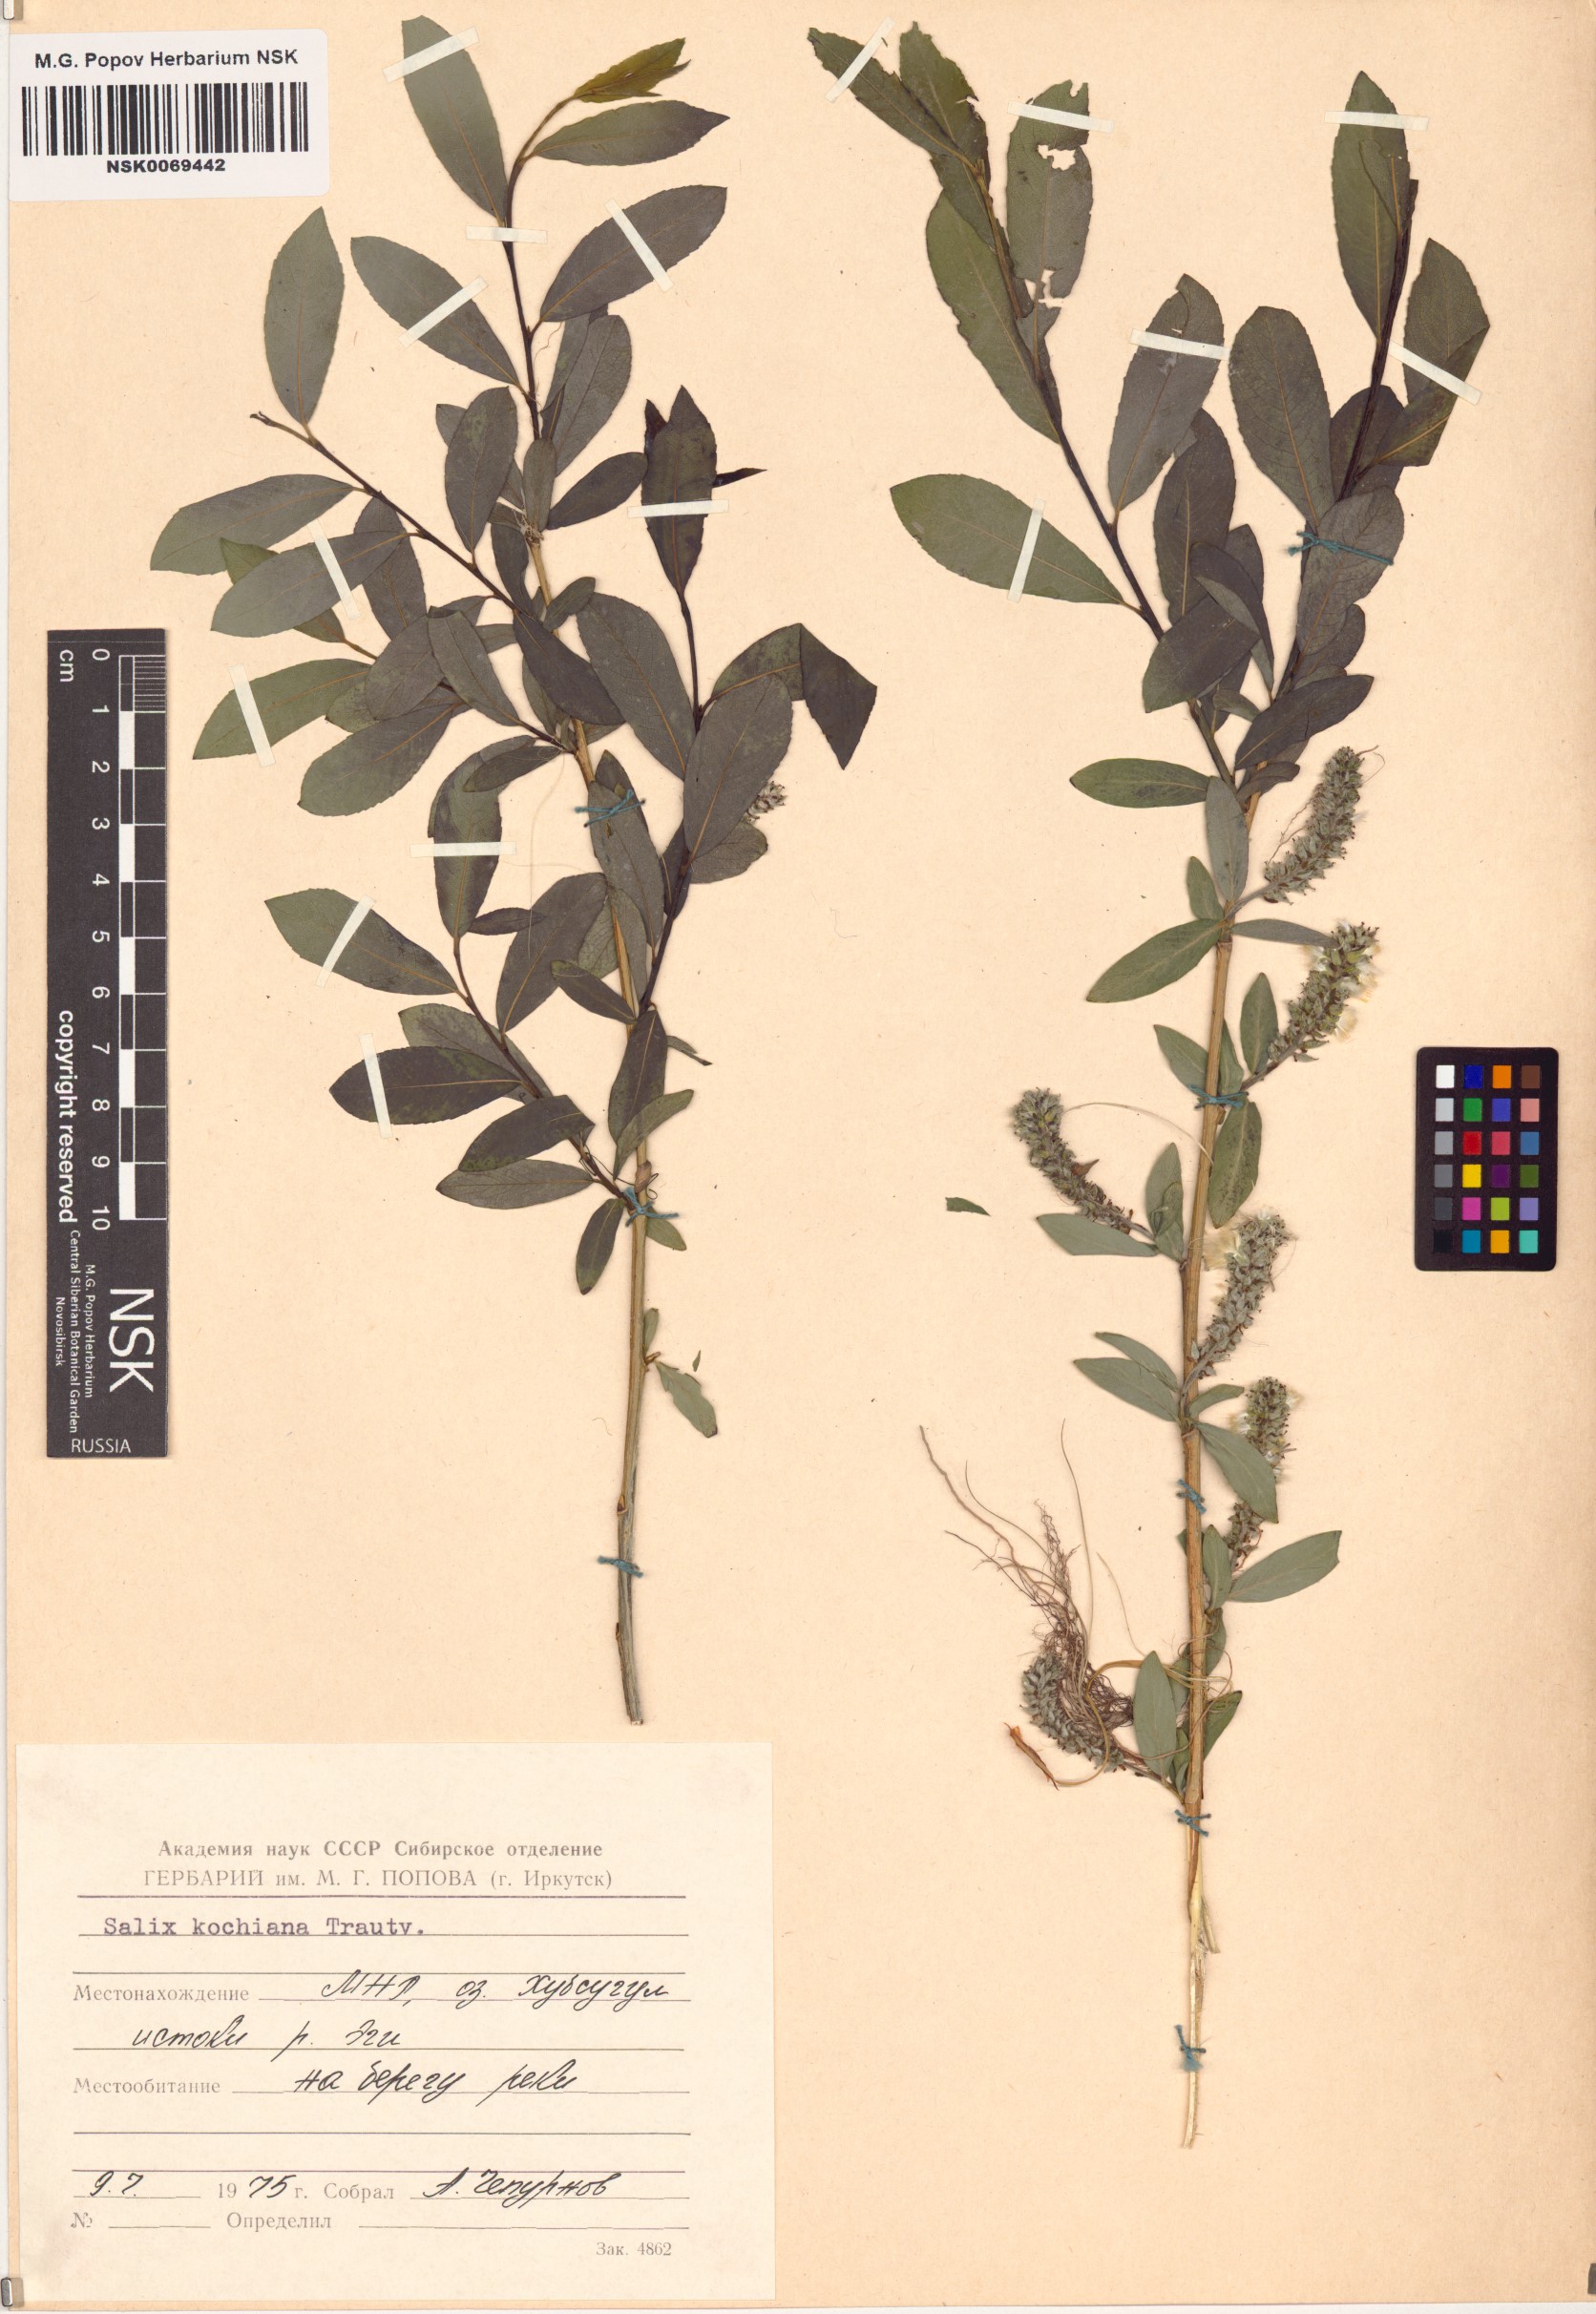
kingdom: Plantae
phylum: Tracheophyta
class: Magnoliopsida
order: Malpighiales
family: Salicaceae
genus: Salix
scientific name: Salix kochiana
